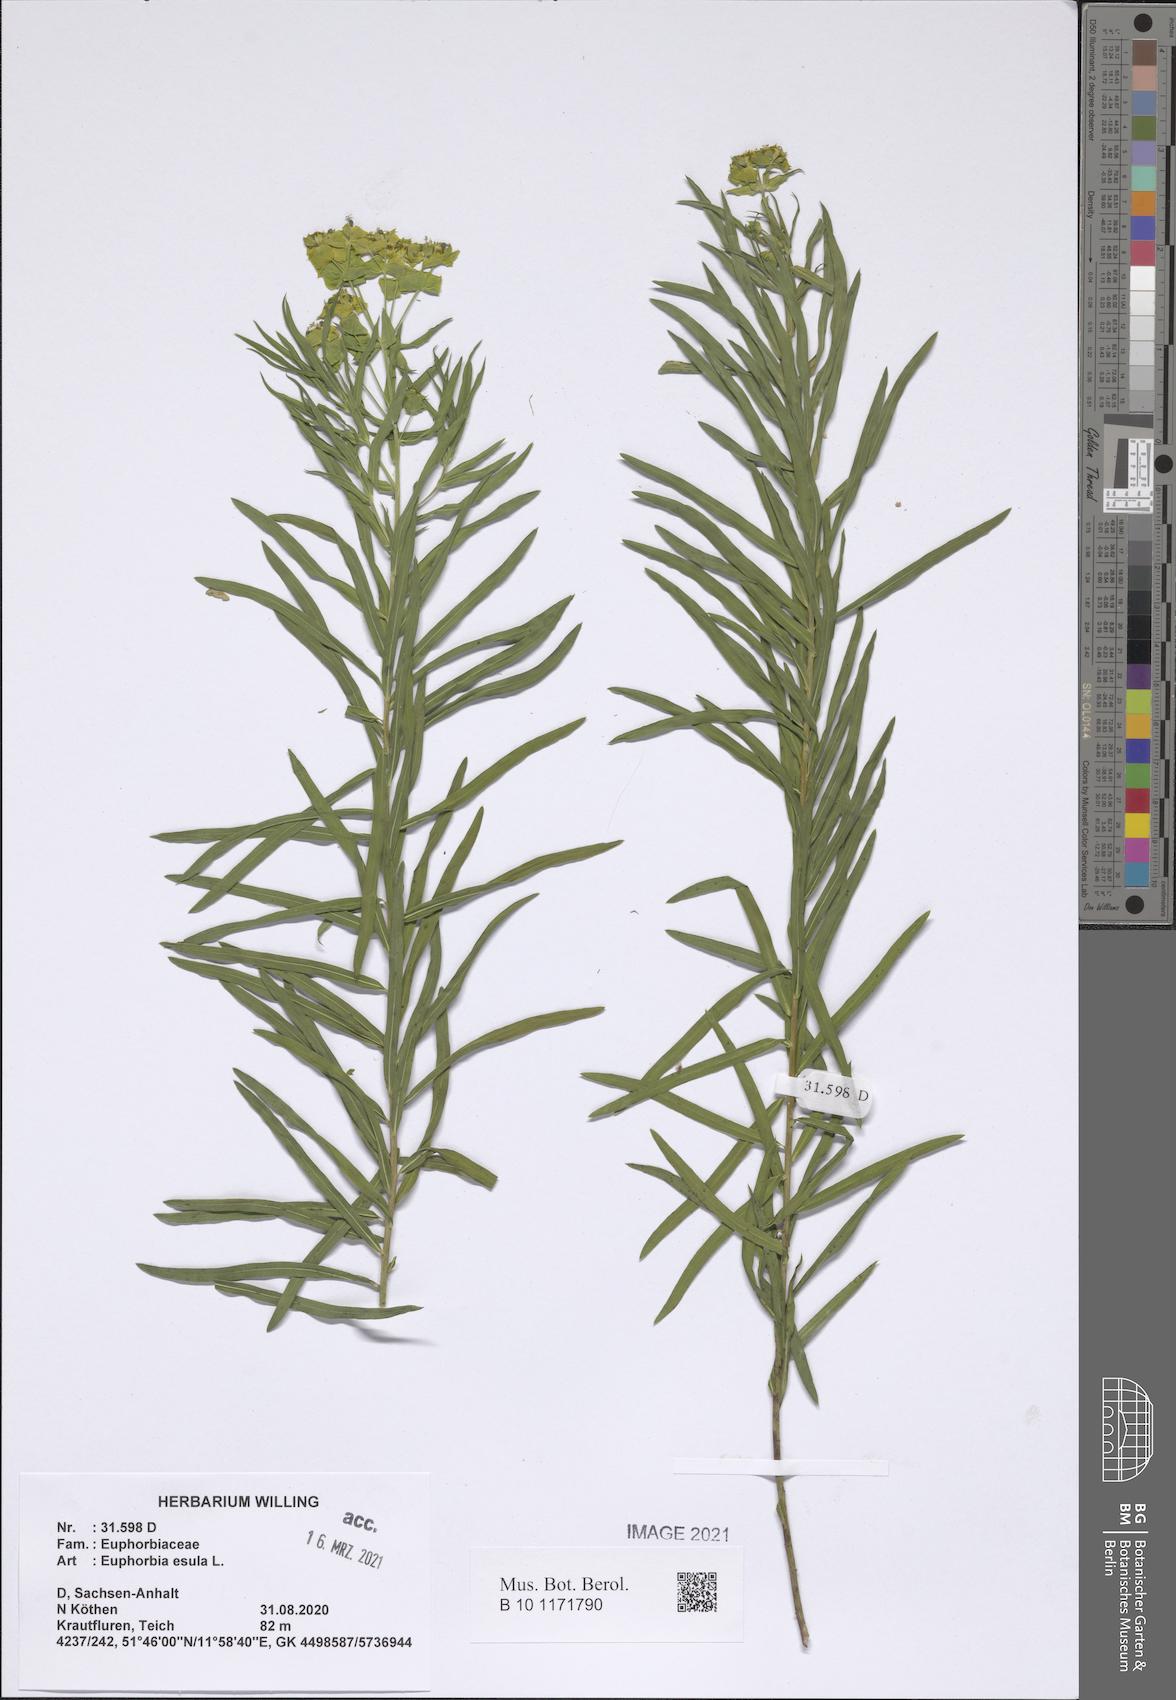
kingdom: Plantae
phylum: Tracheophyta
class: Magnoliopsida
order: Malpighiales
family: Euphorbiaceae
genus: Euphorbia
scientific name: Euphorbia esula
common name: Leafy spurge
